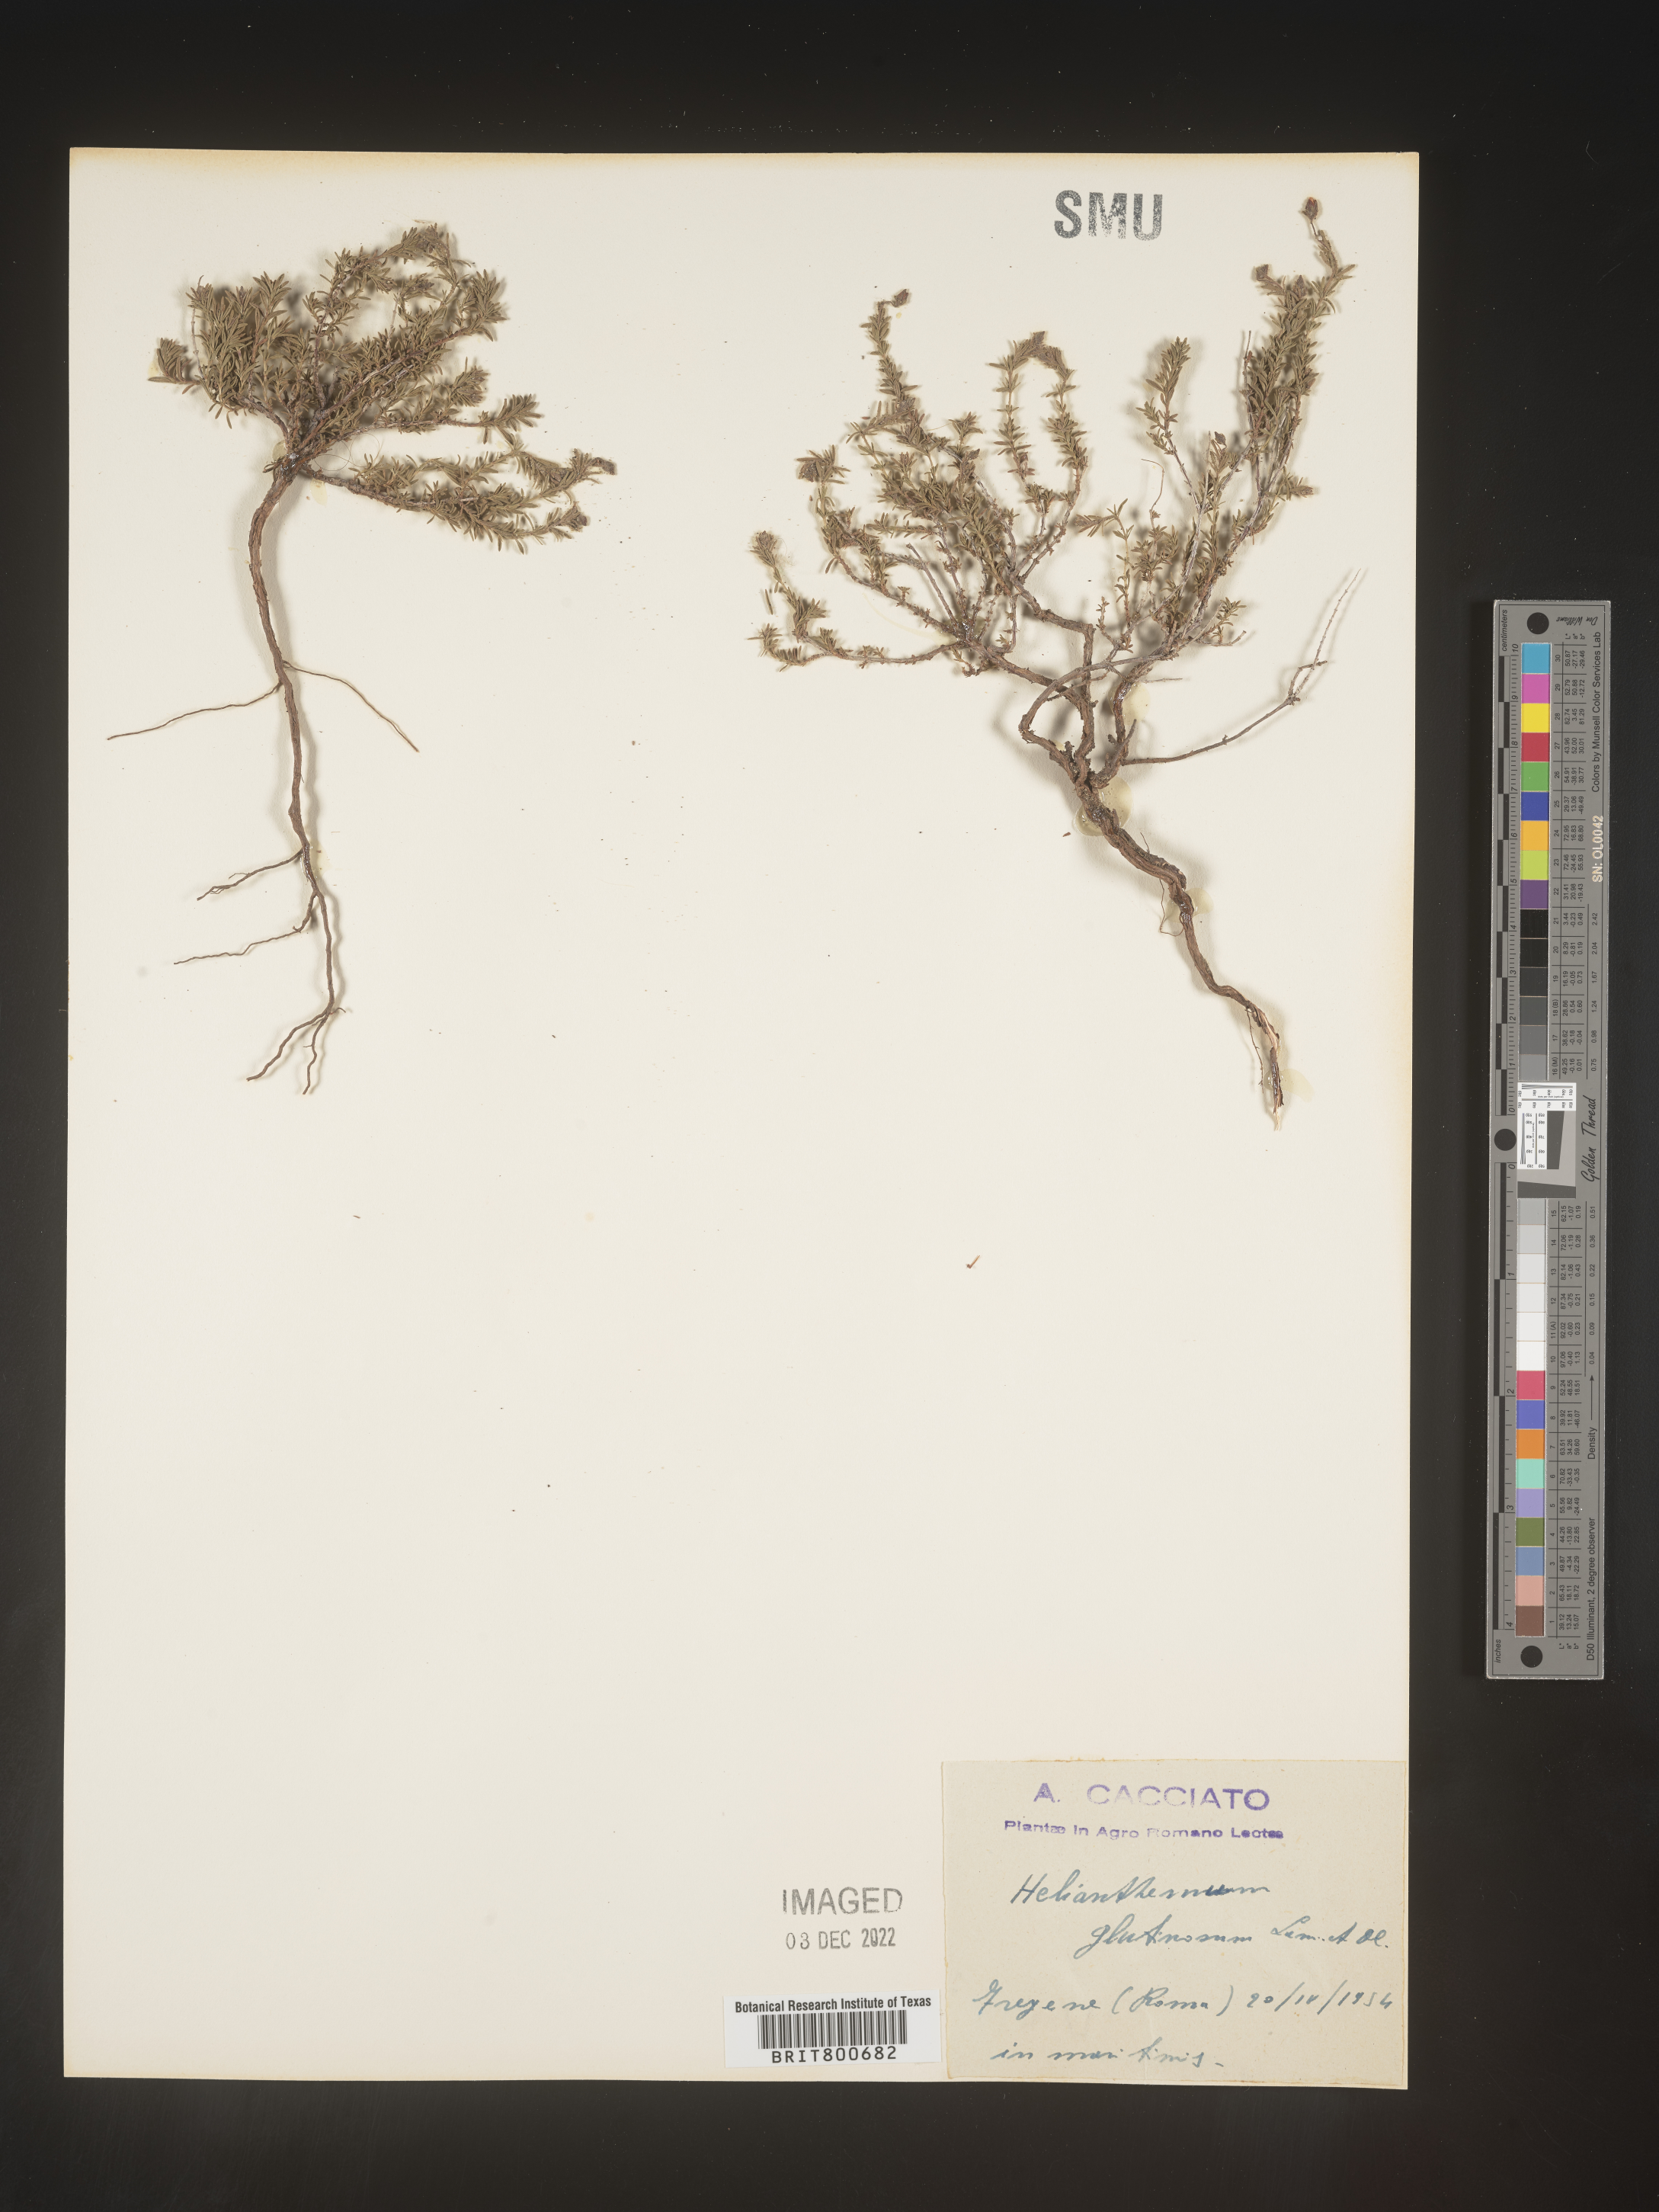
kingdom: Plantae
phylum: Tracheophyta
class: Magnoliopsida
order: Malvales
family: Cistaceae
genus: Helianthemum
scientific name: Helianthemum
